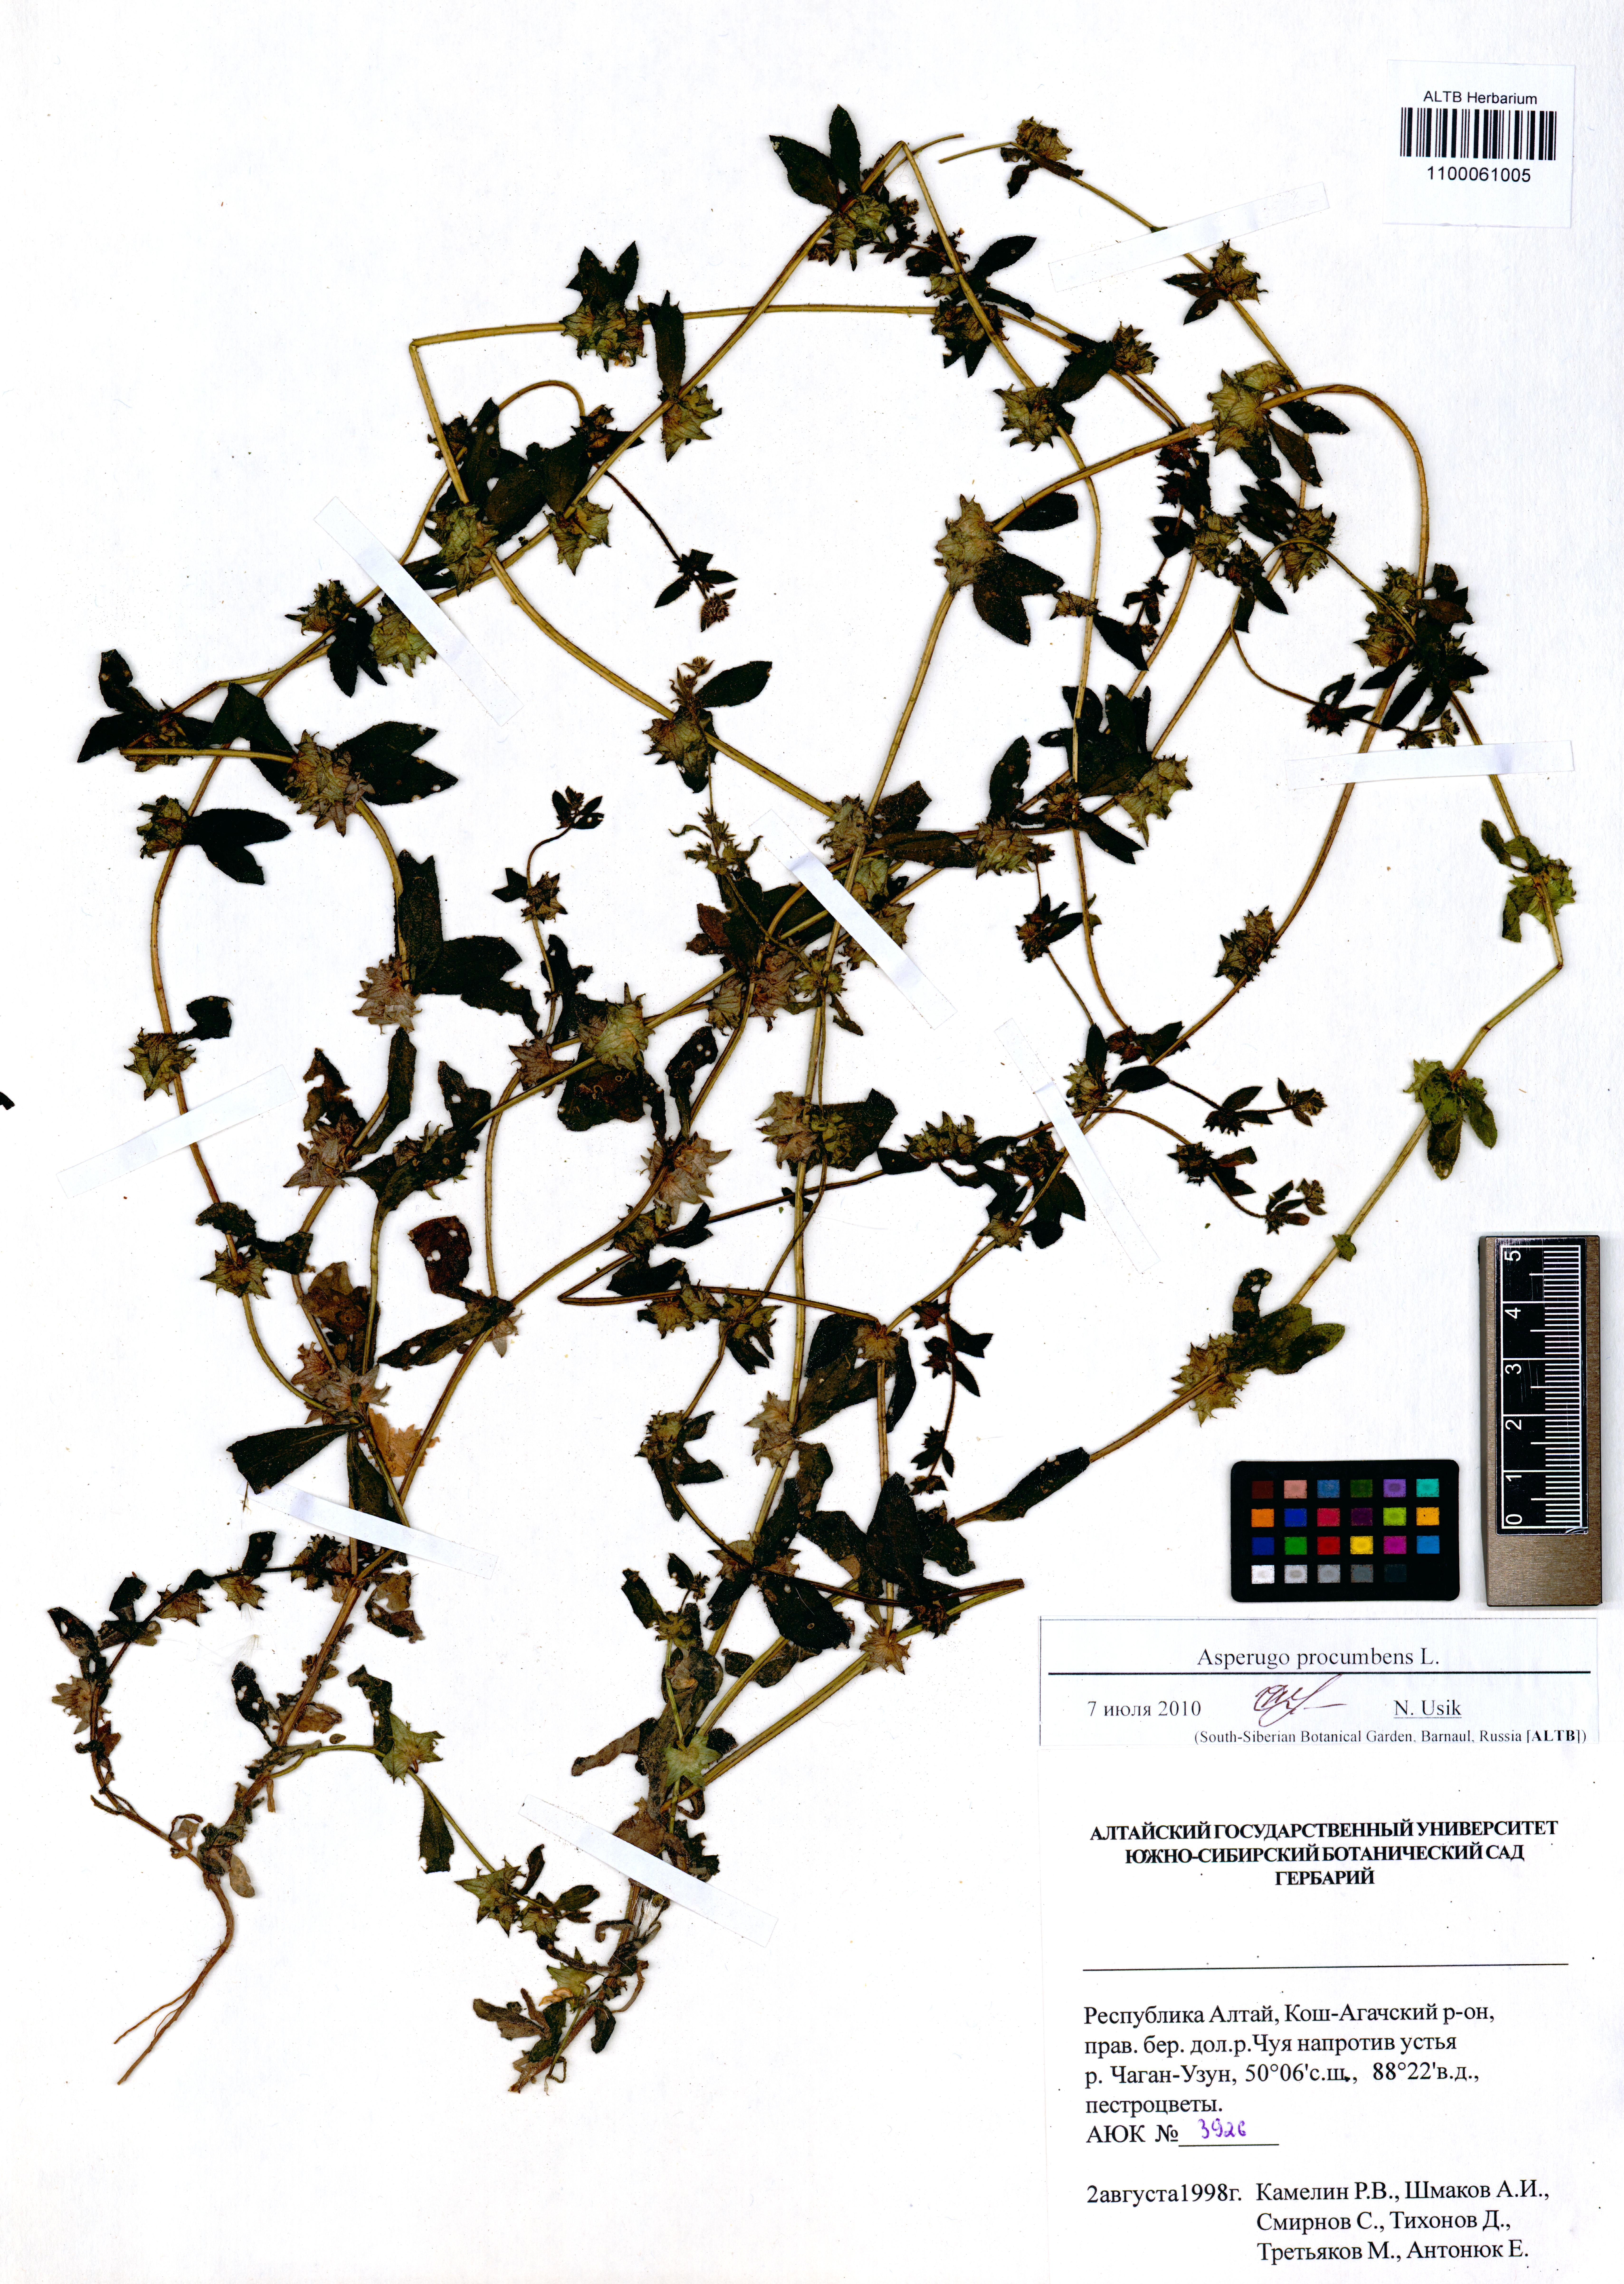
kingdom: Plantae
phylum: Tracheophyta
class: Magnoliopsida
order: Boraginales
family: Boraginaceae
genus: Asperugo
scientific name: Asperugo procumbens
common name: Madwort
